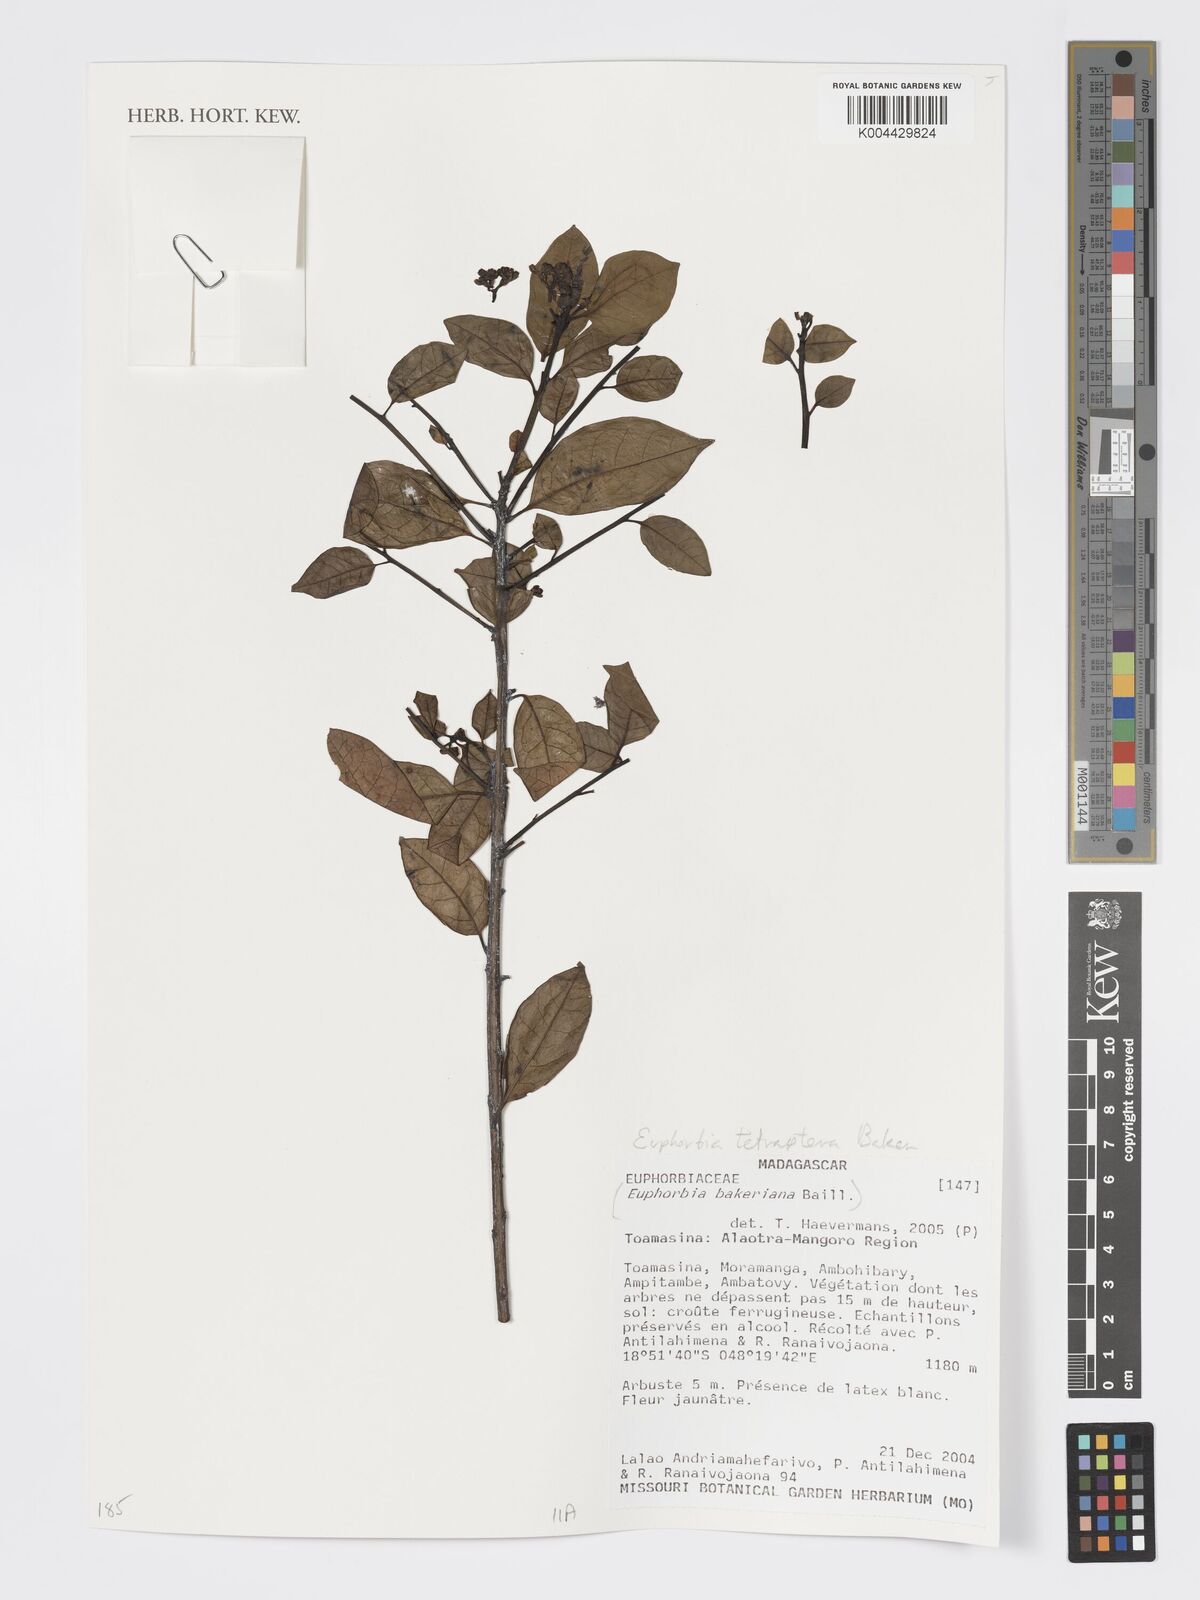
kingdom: Plantae
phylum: Tracheophyta
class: Magnoliopsida
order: Malpighiales
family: Euphorbiaceae
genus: Euphorbia
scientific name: Euphorbia tetraptera
